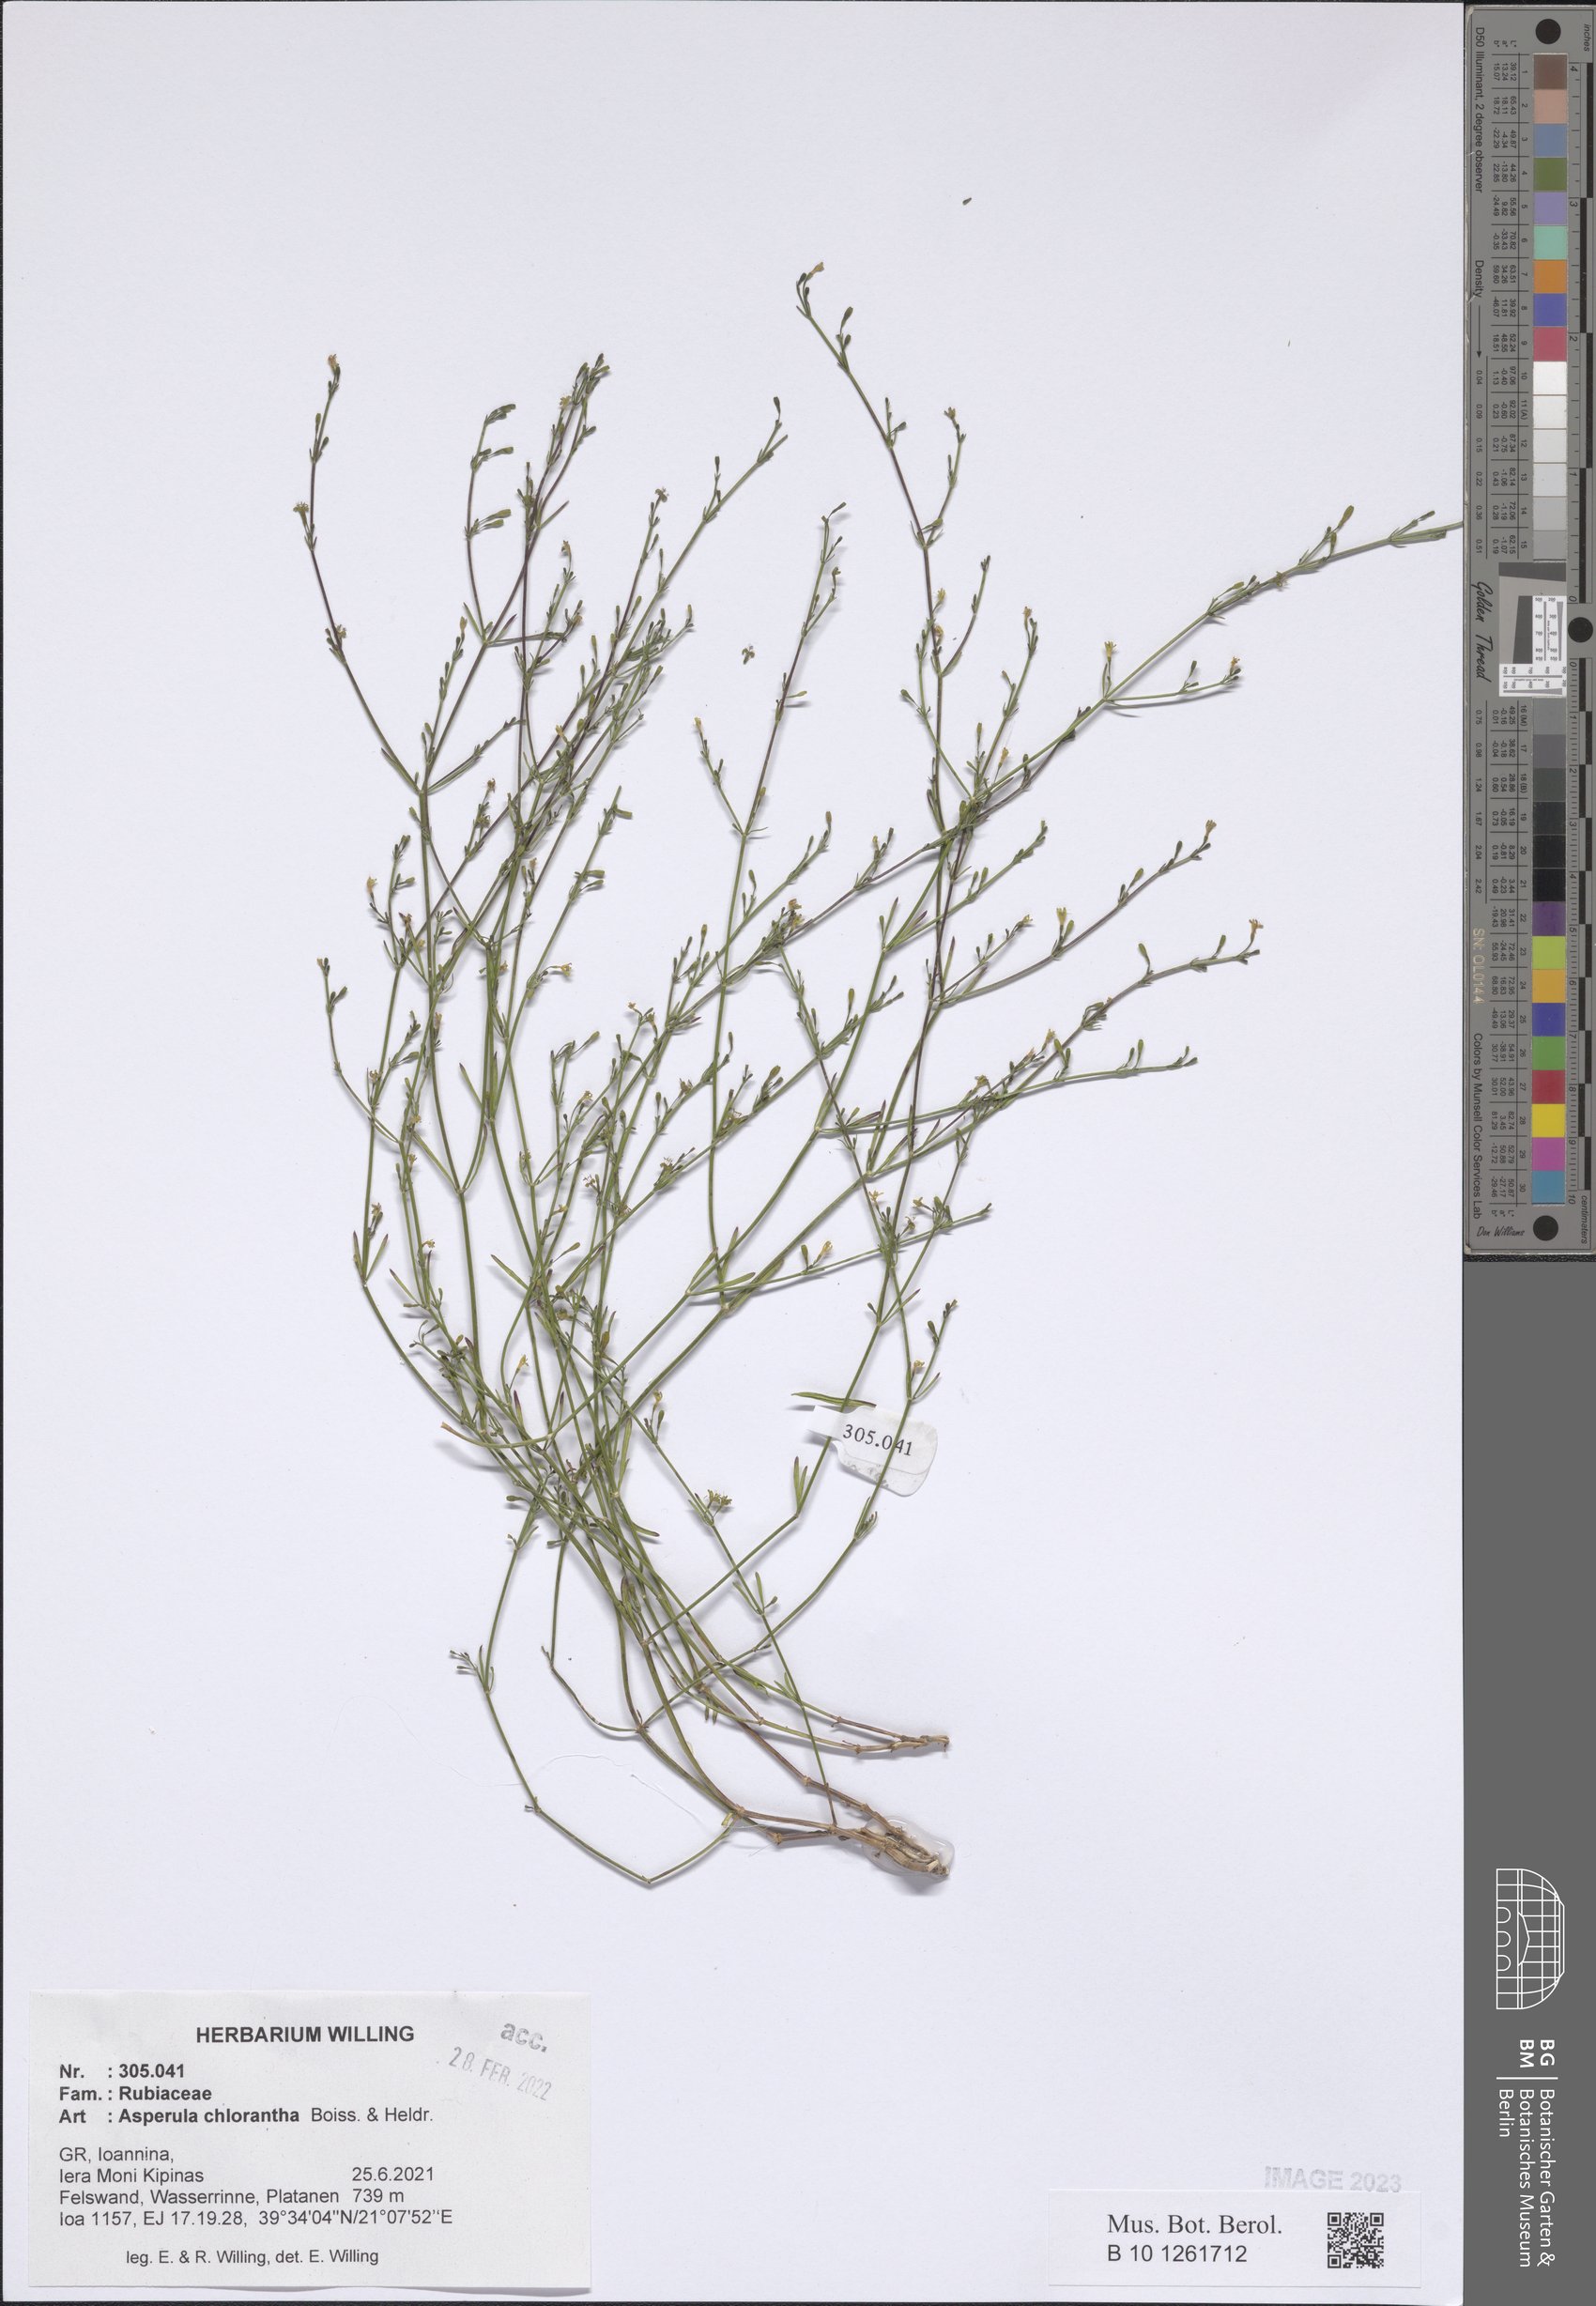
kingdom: Plantae
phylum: Tracheophyta
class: Magnoliopsida
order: Gentianales
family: Rubiaceae
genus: Thliphthisa
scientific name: Thliphthisa chlorantha
